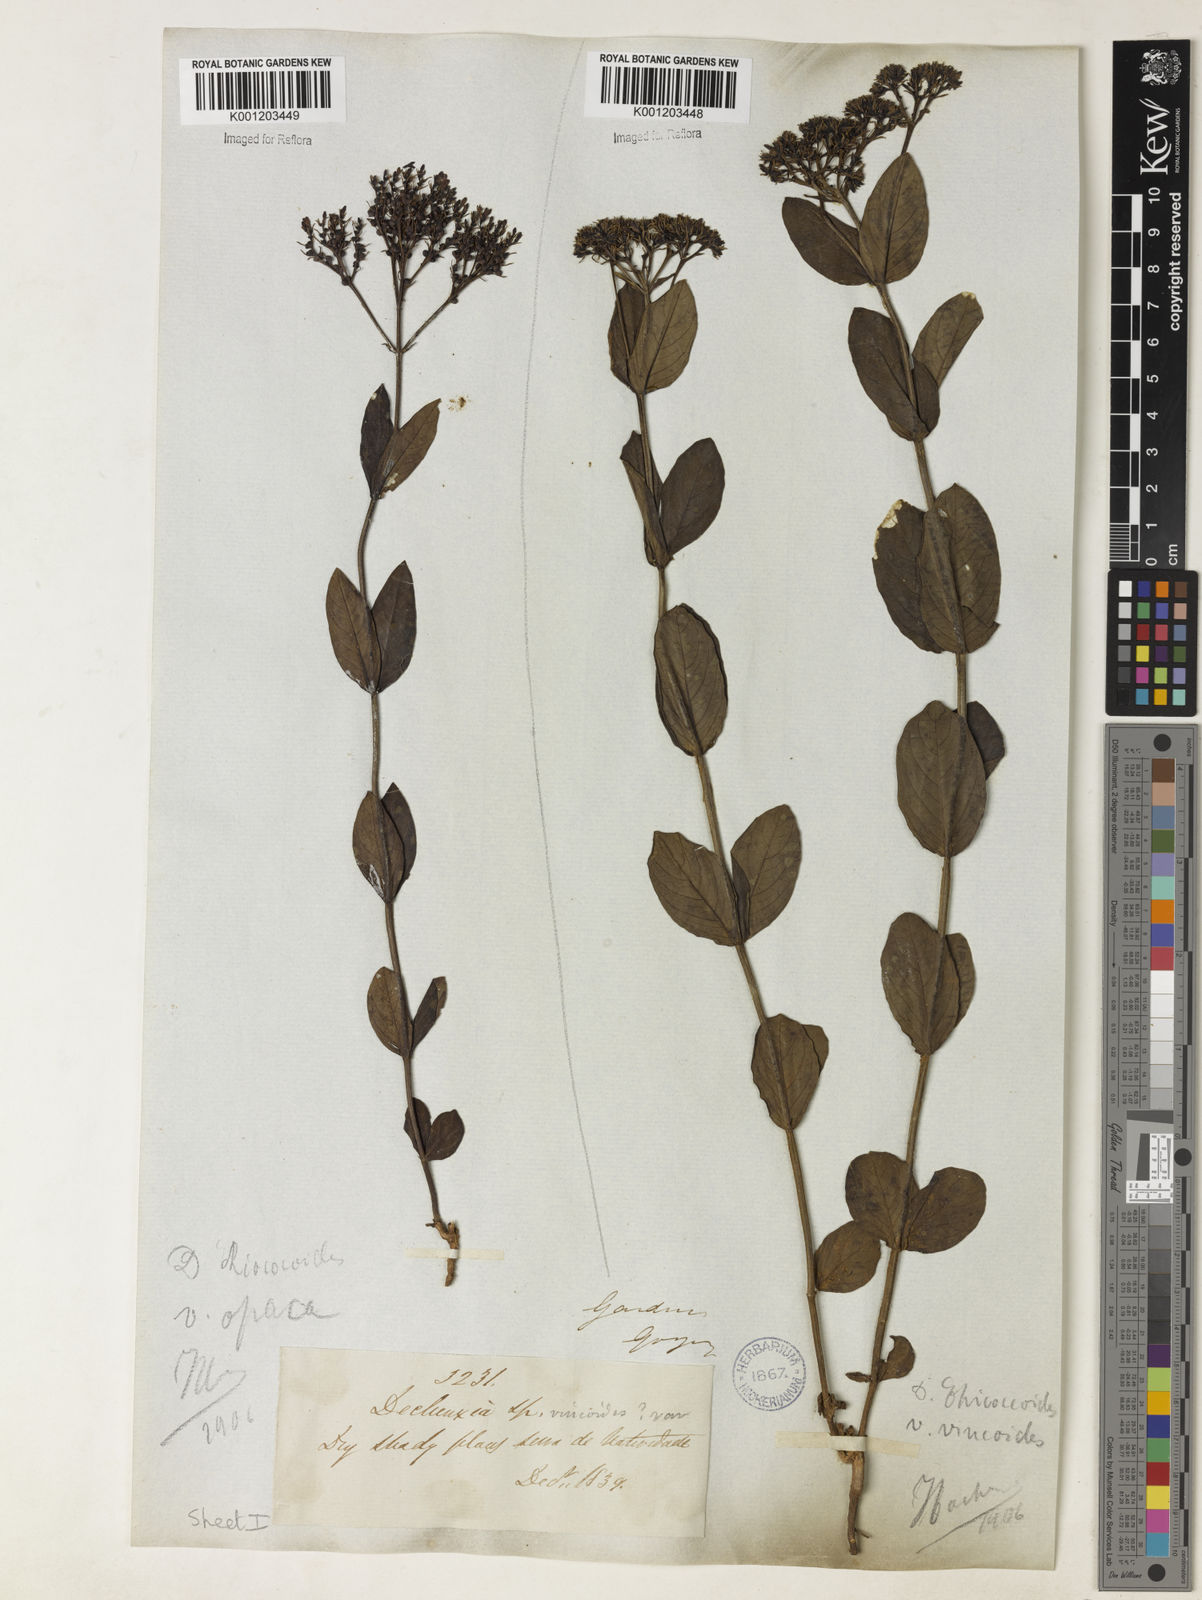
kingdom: Plantae
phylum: Tracheophyta
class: Magnoliopsida
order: Gentianales
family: Rubiaceae
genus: Declieuxia
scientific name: Declieuxia fruticosa
